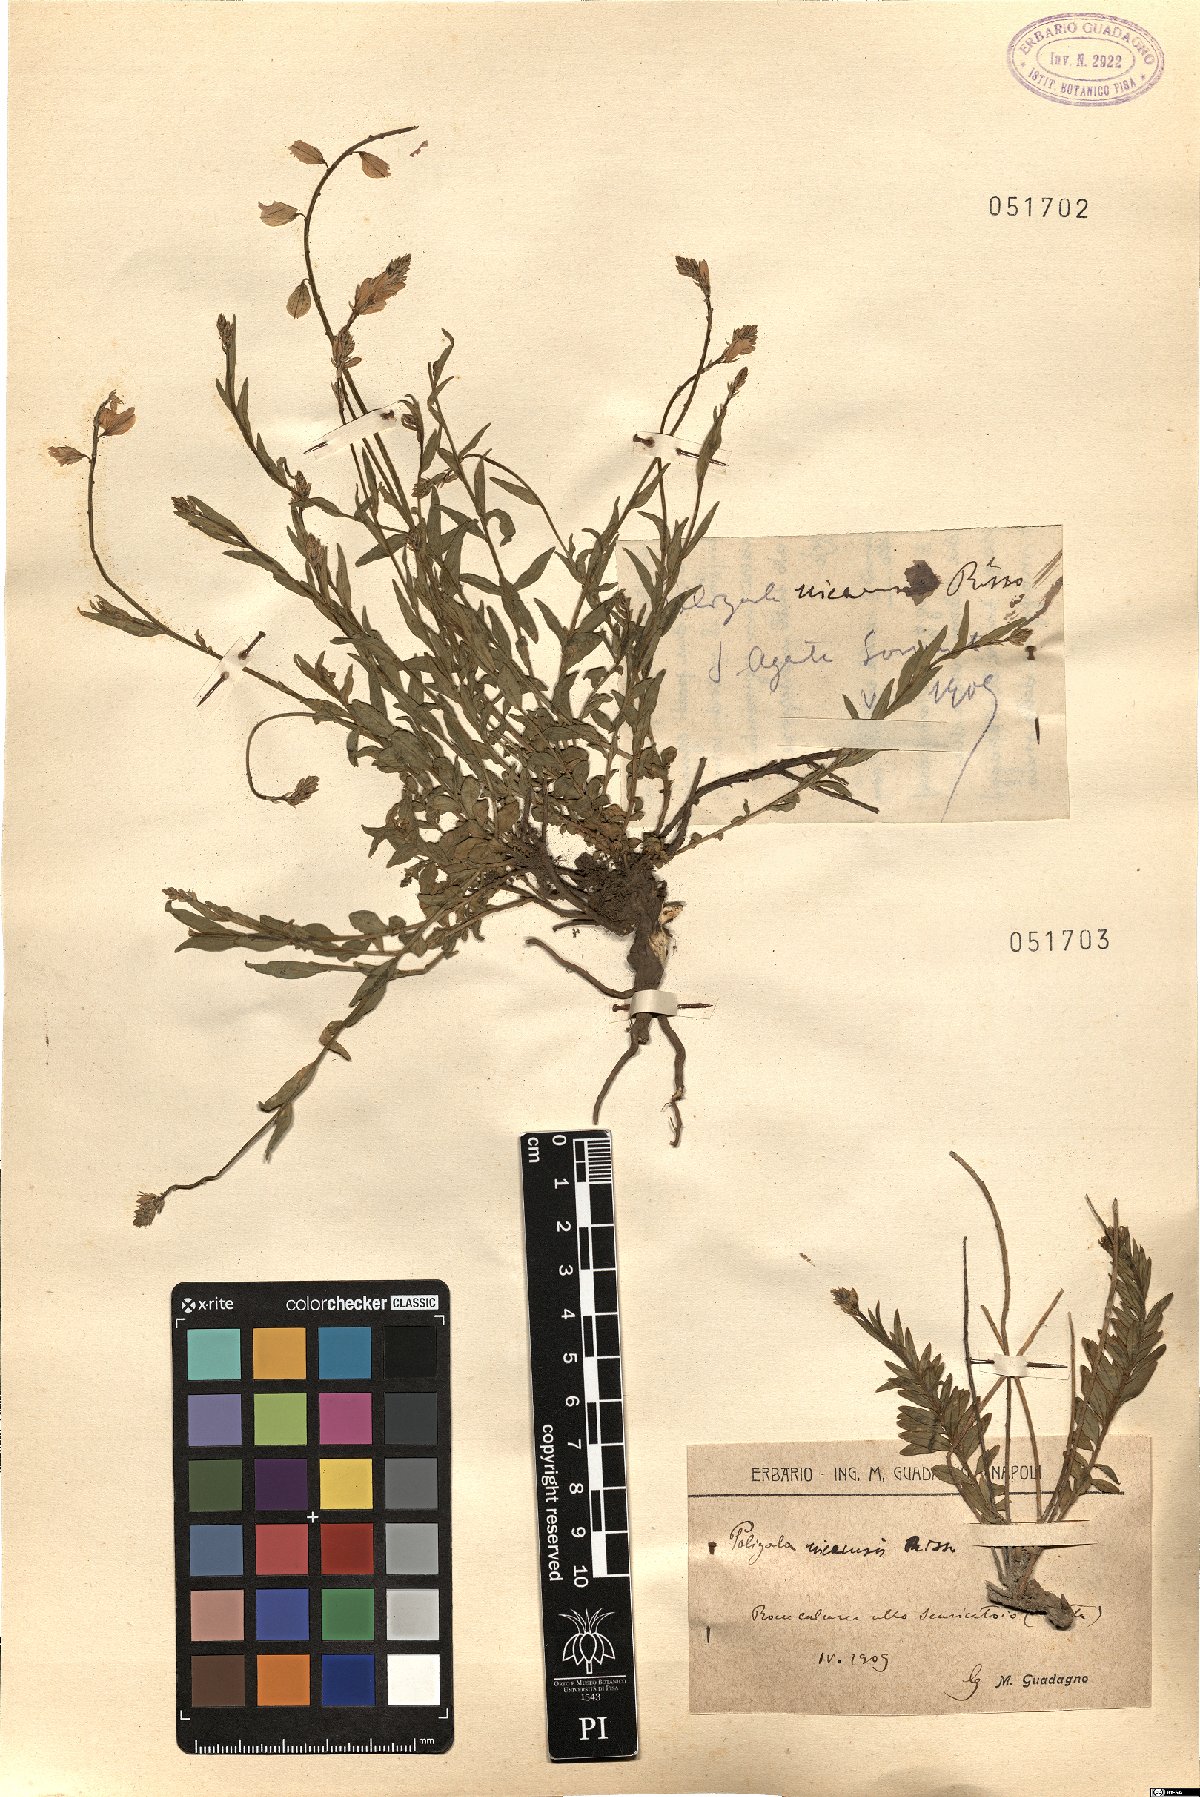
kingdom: Plantae
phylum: Tracheophyta
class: Magnoliopsida
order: Fabales
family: Polygalaceae
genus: Polygala
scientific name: Polygala nicaeensis
